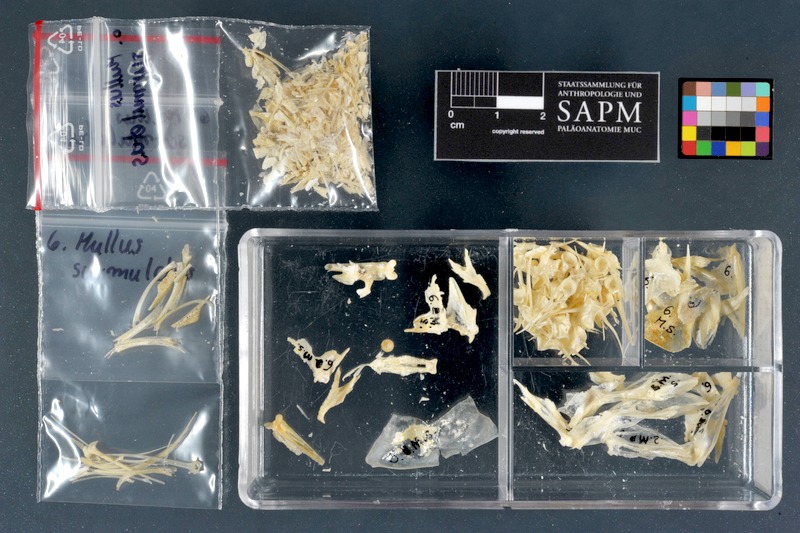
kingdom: Animalia
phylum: Chordata
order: Perciformes
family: Mullidae
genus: Mullus
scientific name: Mullus surmuletus
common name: Red mullet
